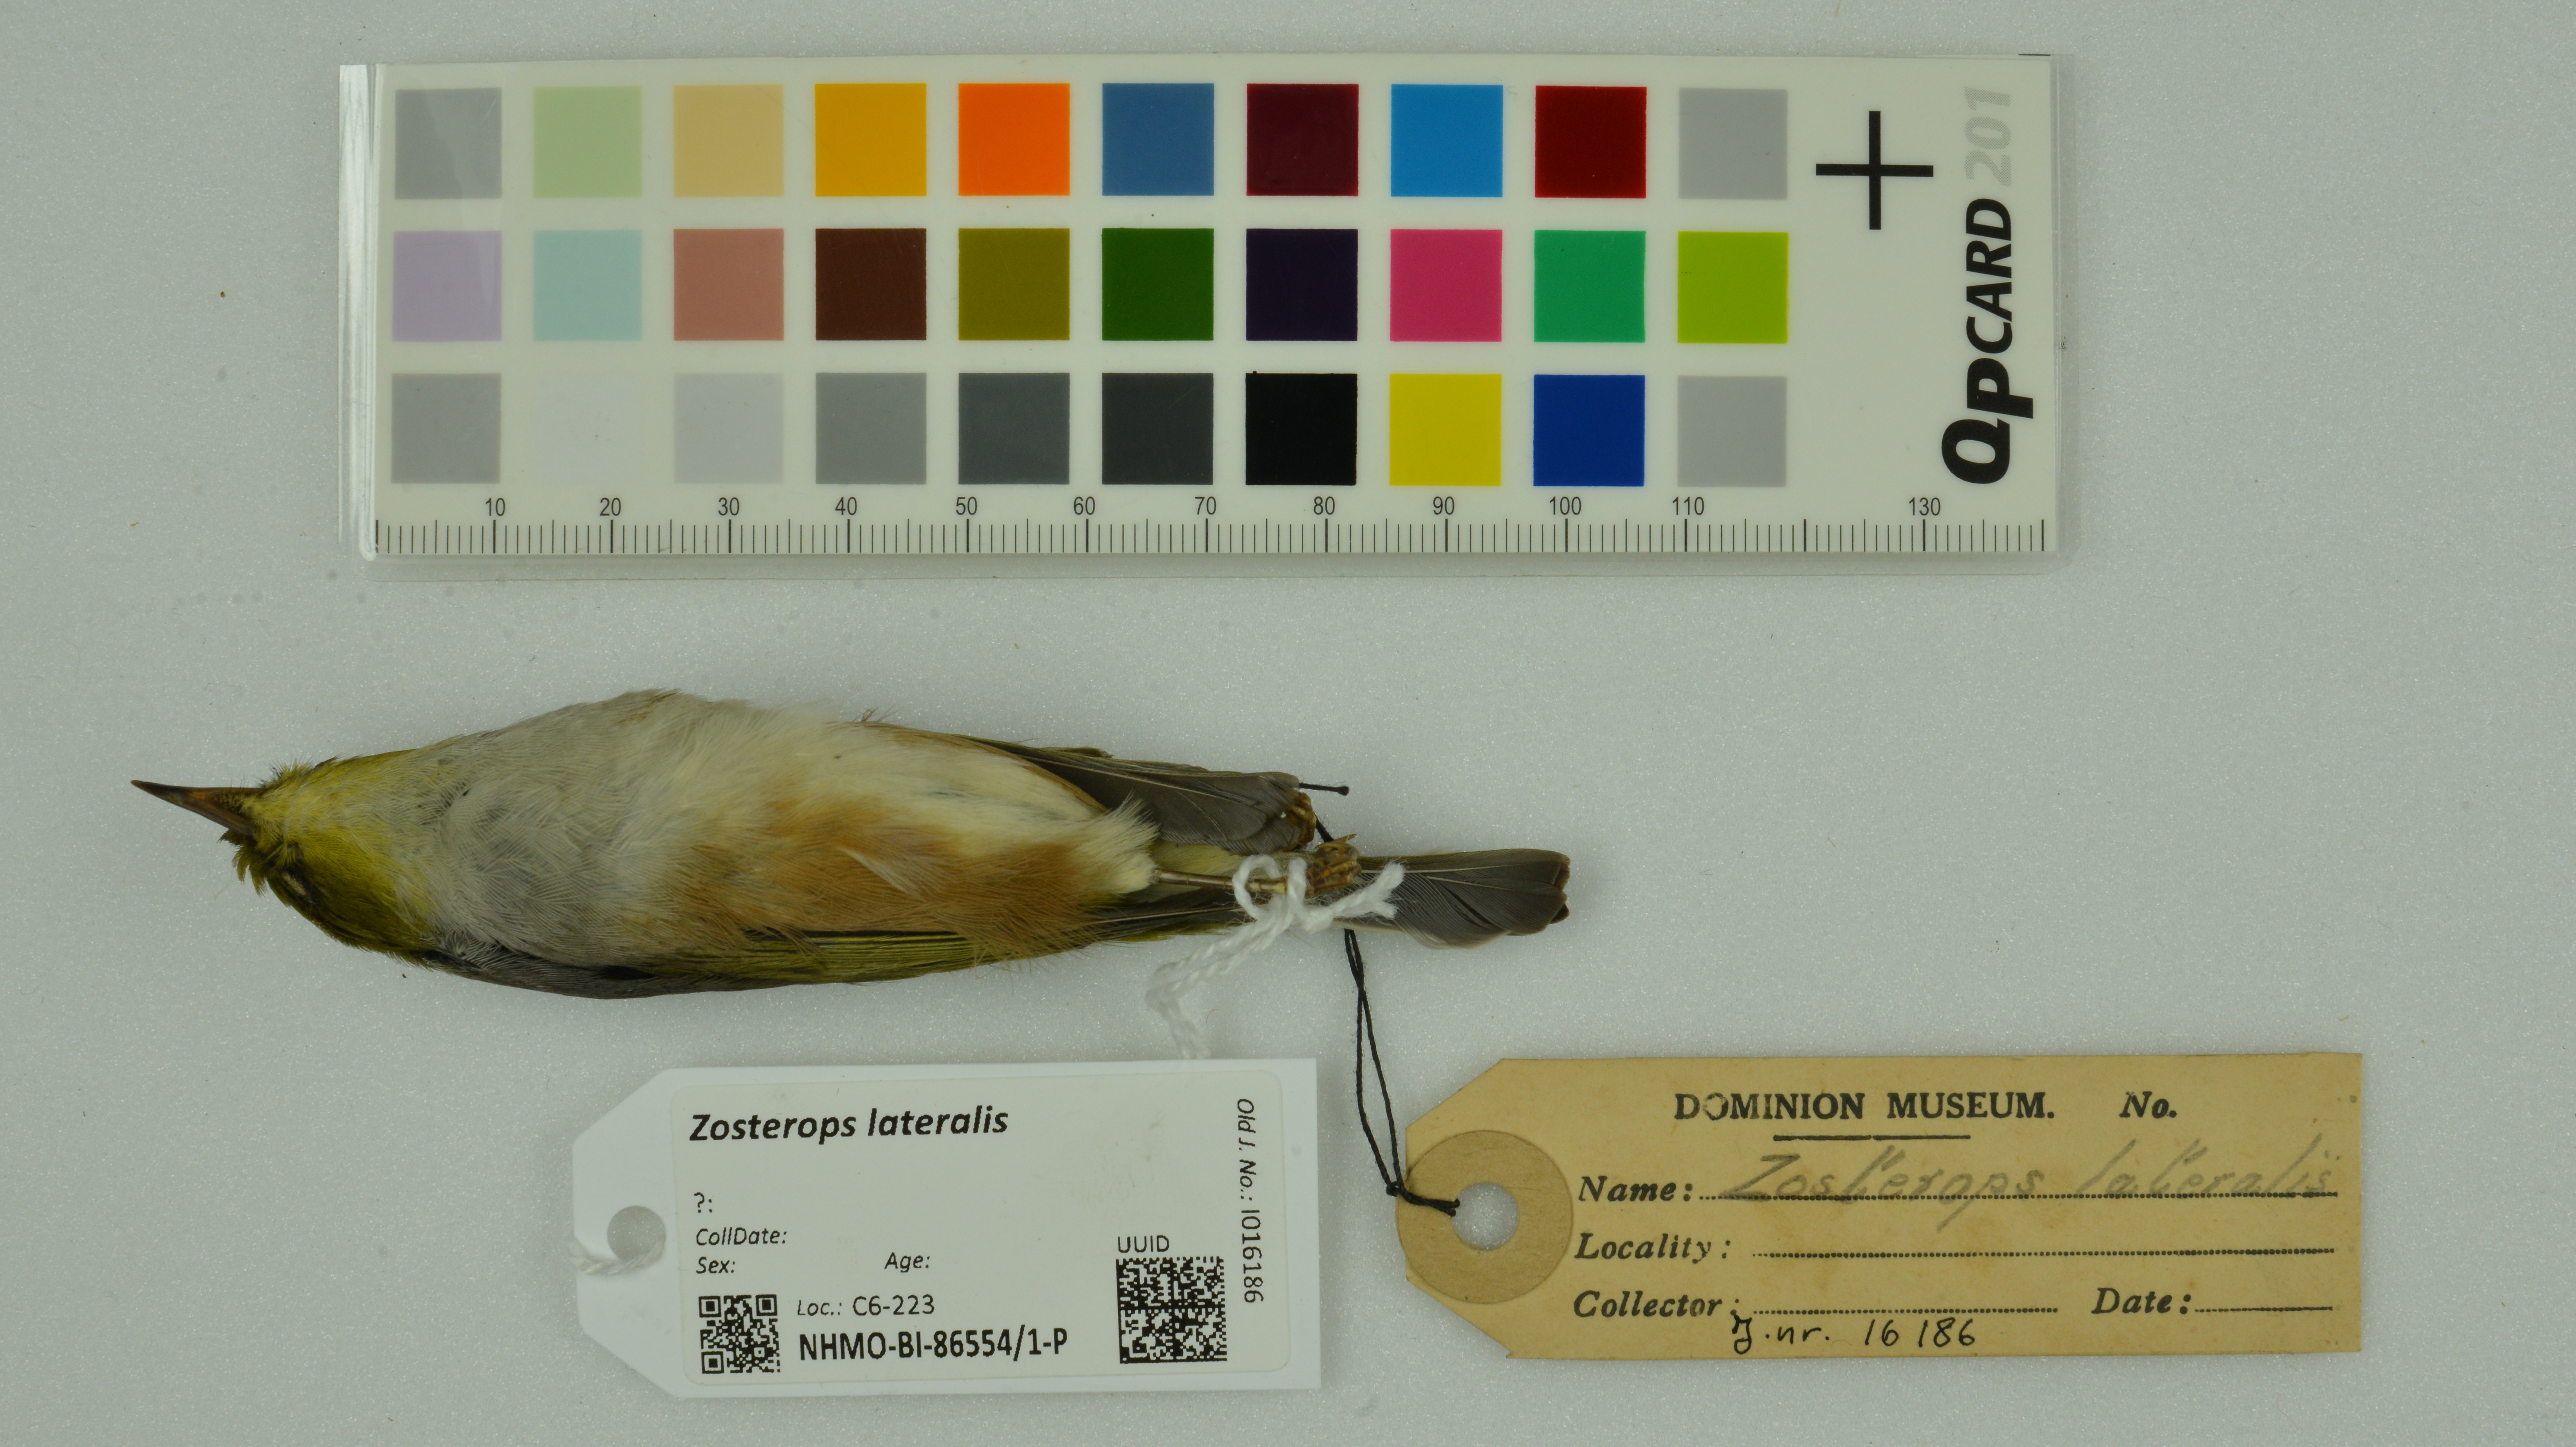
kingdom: Animalia
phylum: Chordata
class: Aves
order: Passeriformes
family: Zosteropidae
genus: Zosterops
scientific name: Zosterops lateralis
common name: Silvereye
